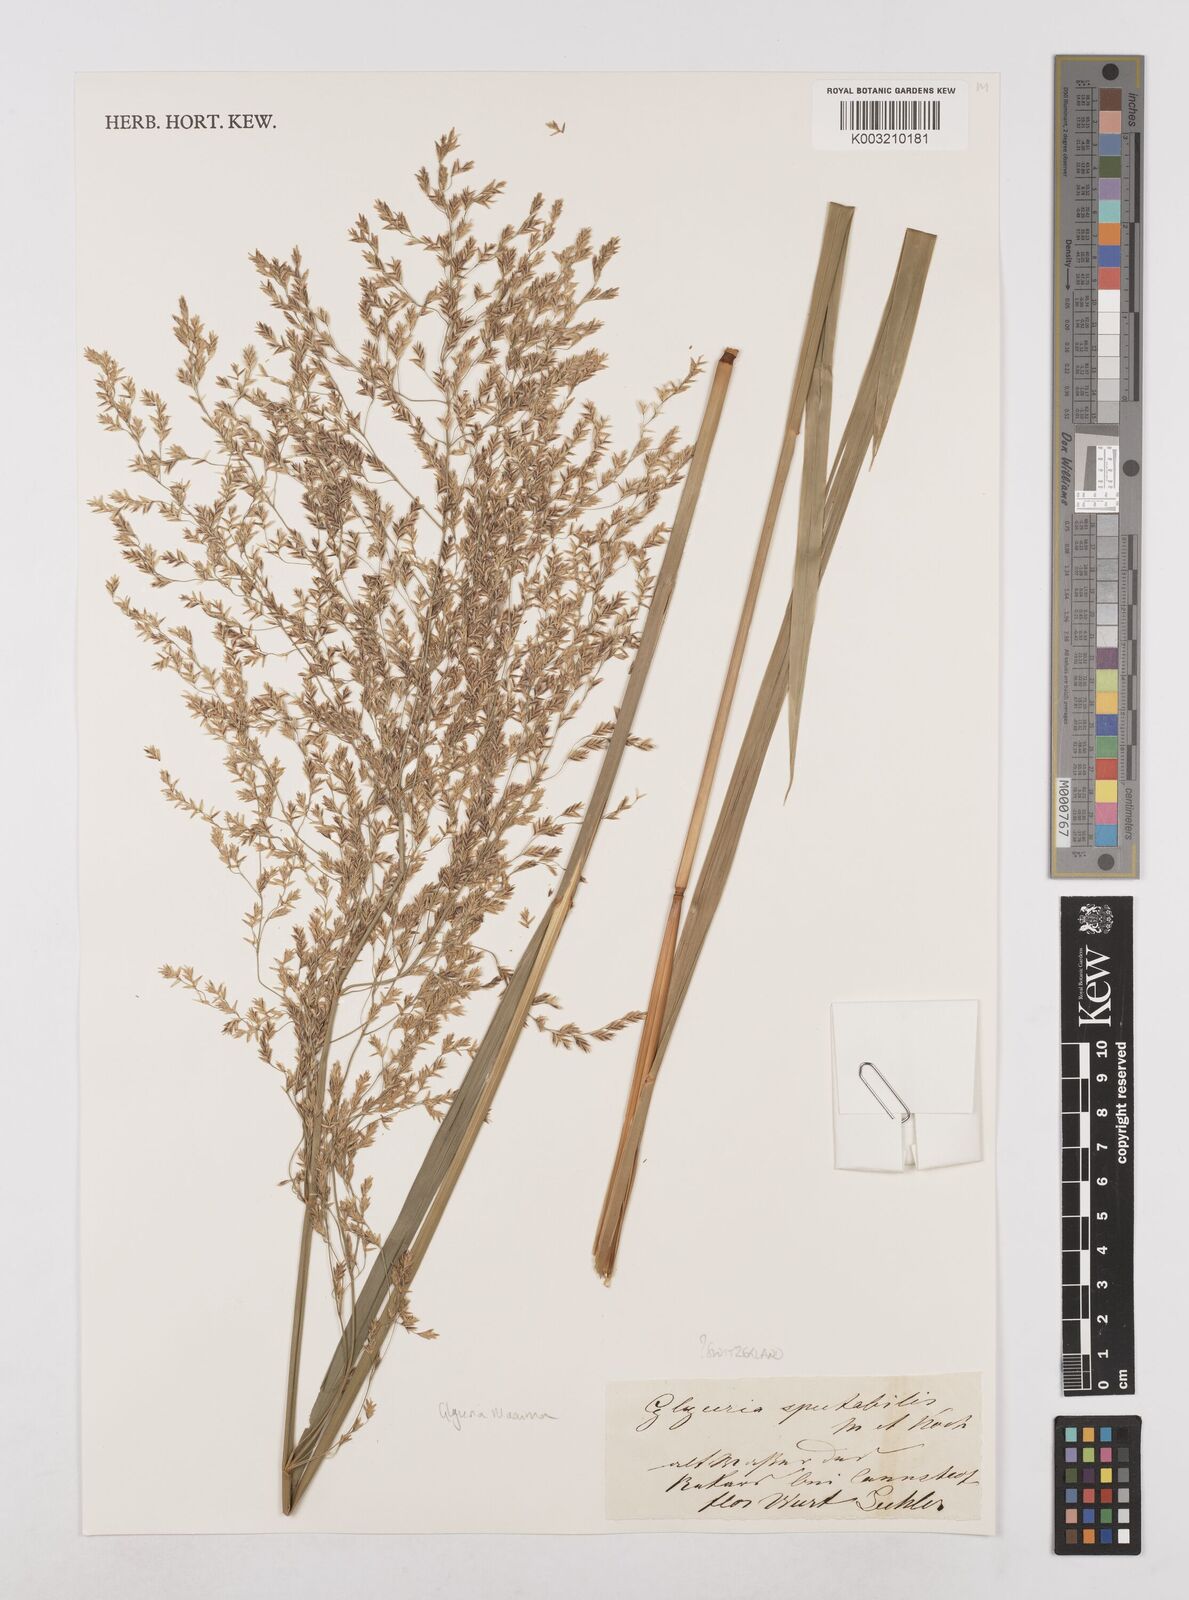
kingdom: Plantae
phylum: Tracheophyta
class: Liliopsida
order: Poales
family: Poaceae
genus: Glyceria
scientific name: Glyceria maxima
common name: Reed mannagrass
